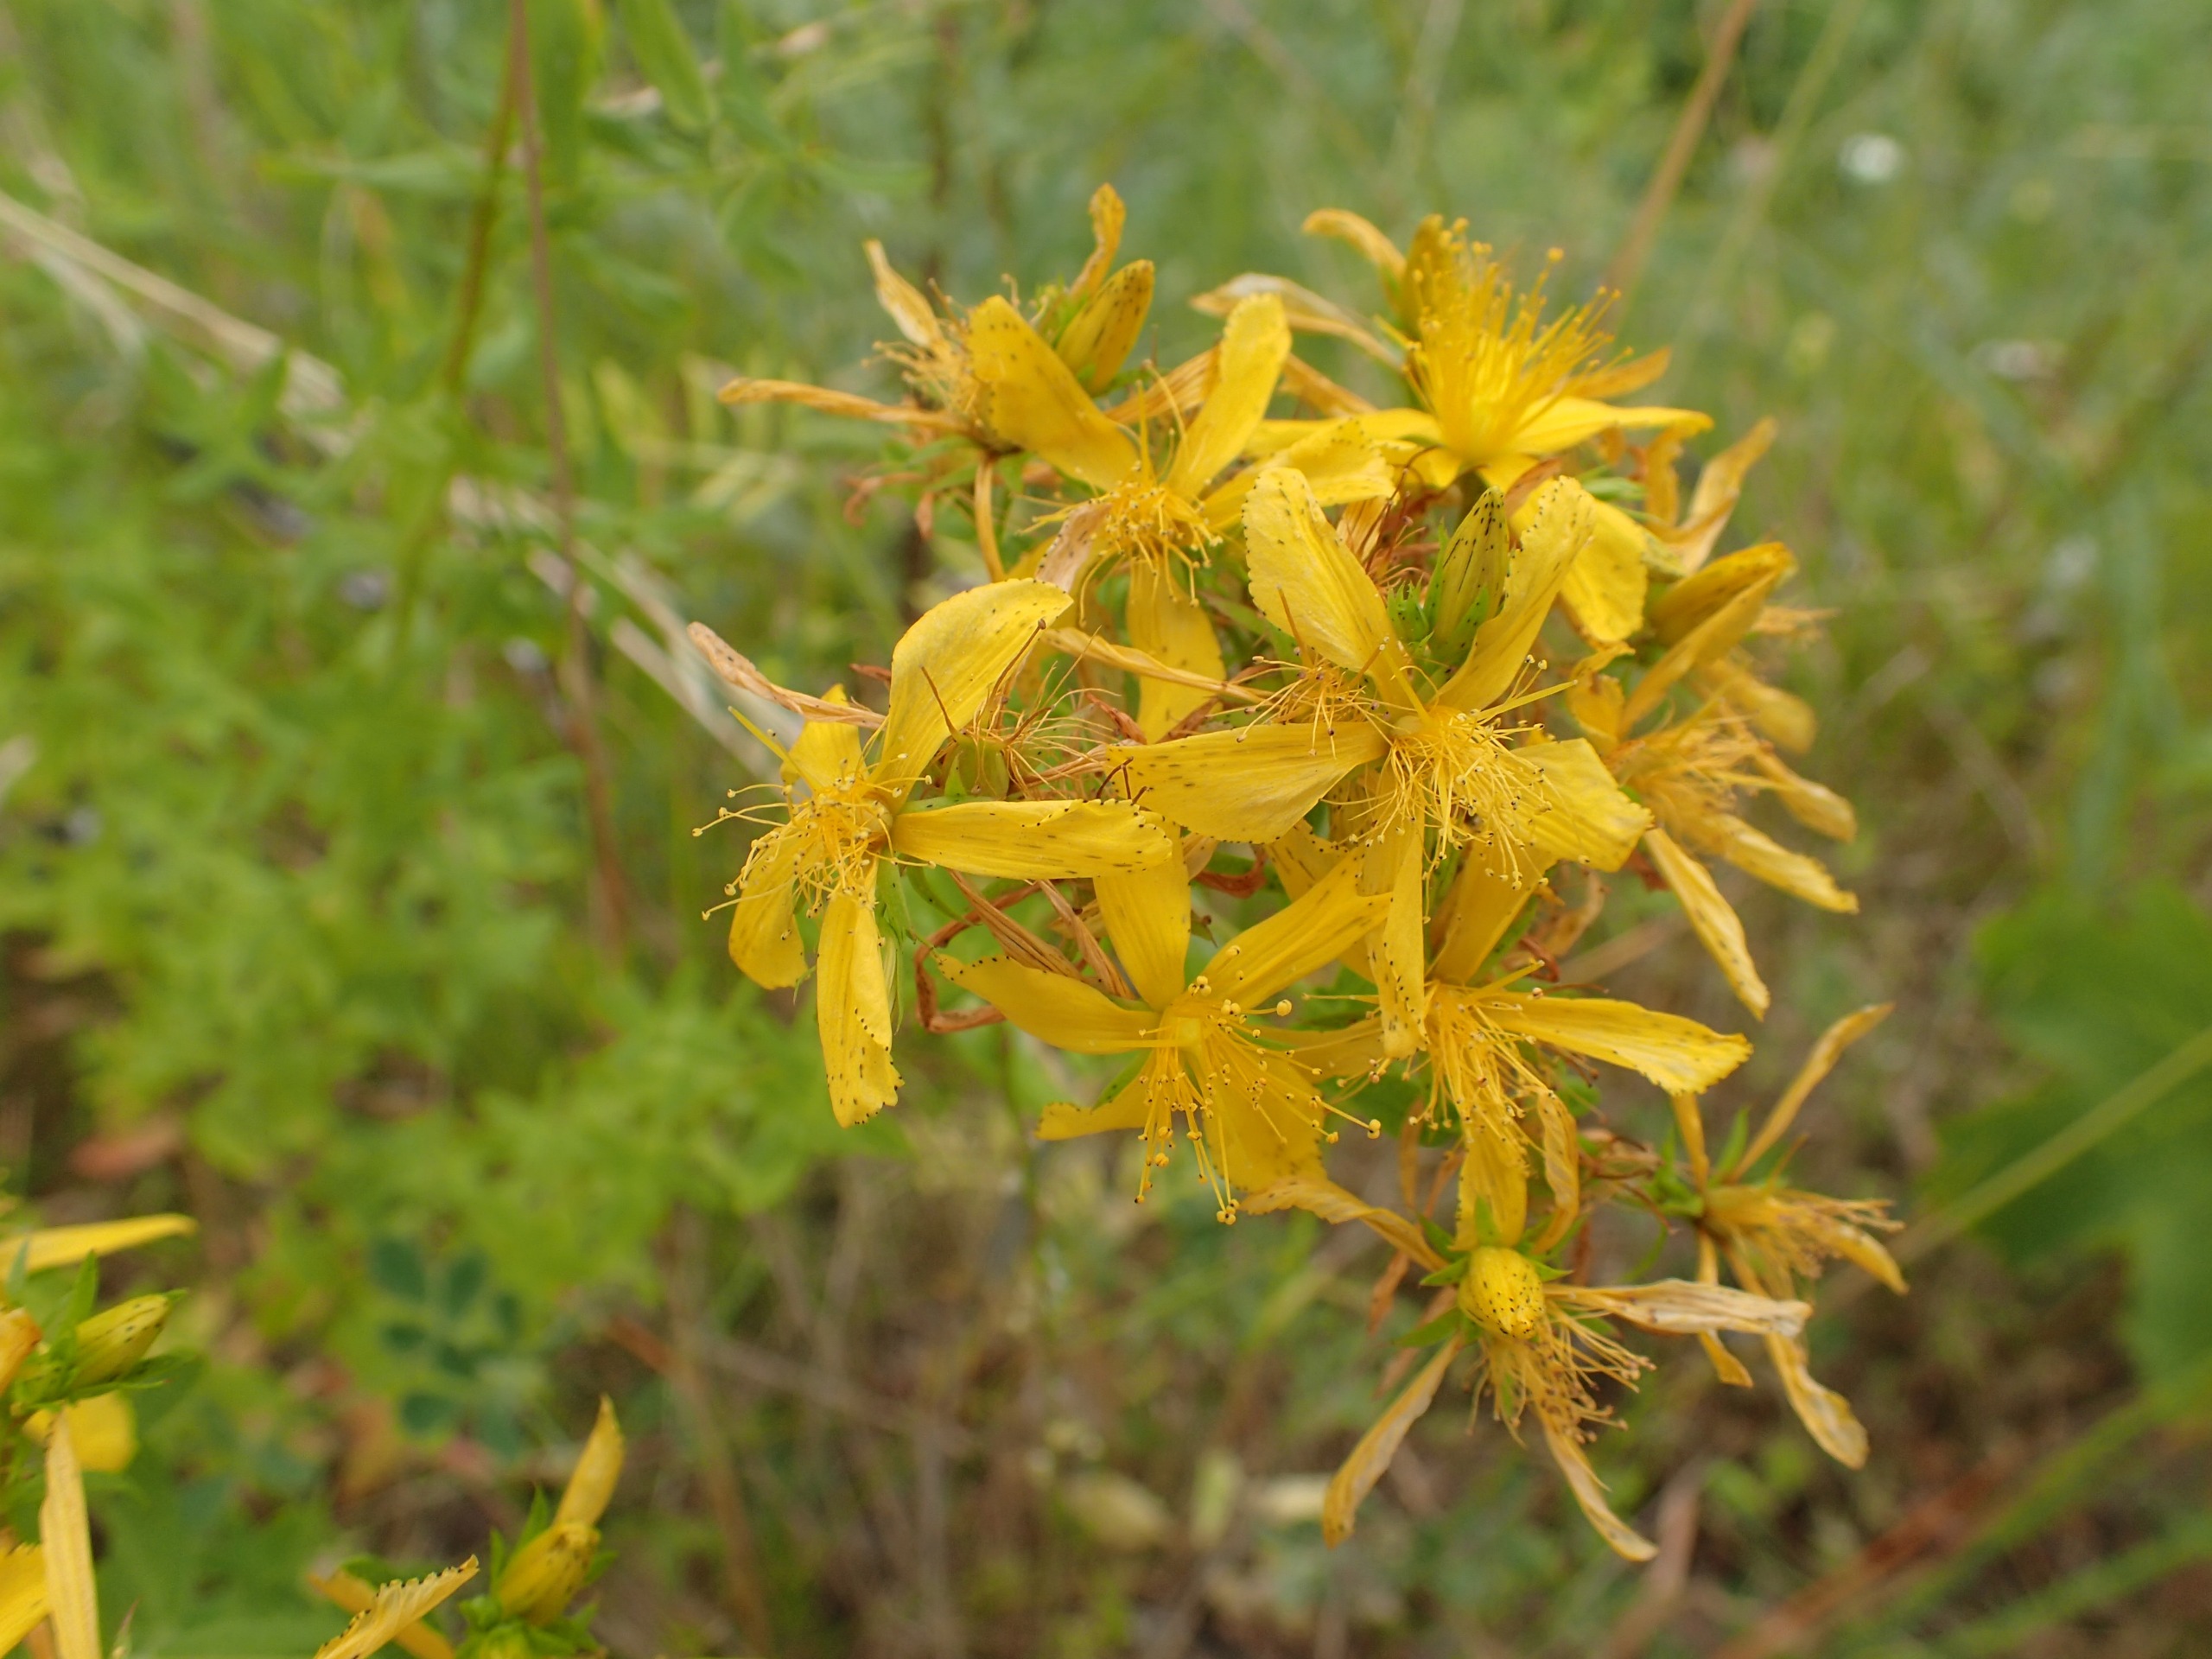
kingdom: Plantae
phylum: Tracheophyta
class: Magnoliopsida
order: Malpighiales
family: Hypericaceae
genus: Hypericum
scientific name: Hypericum perforatum
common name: Prikbladet perikon
